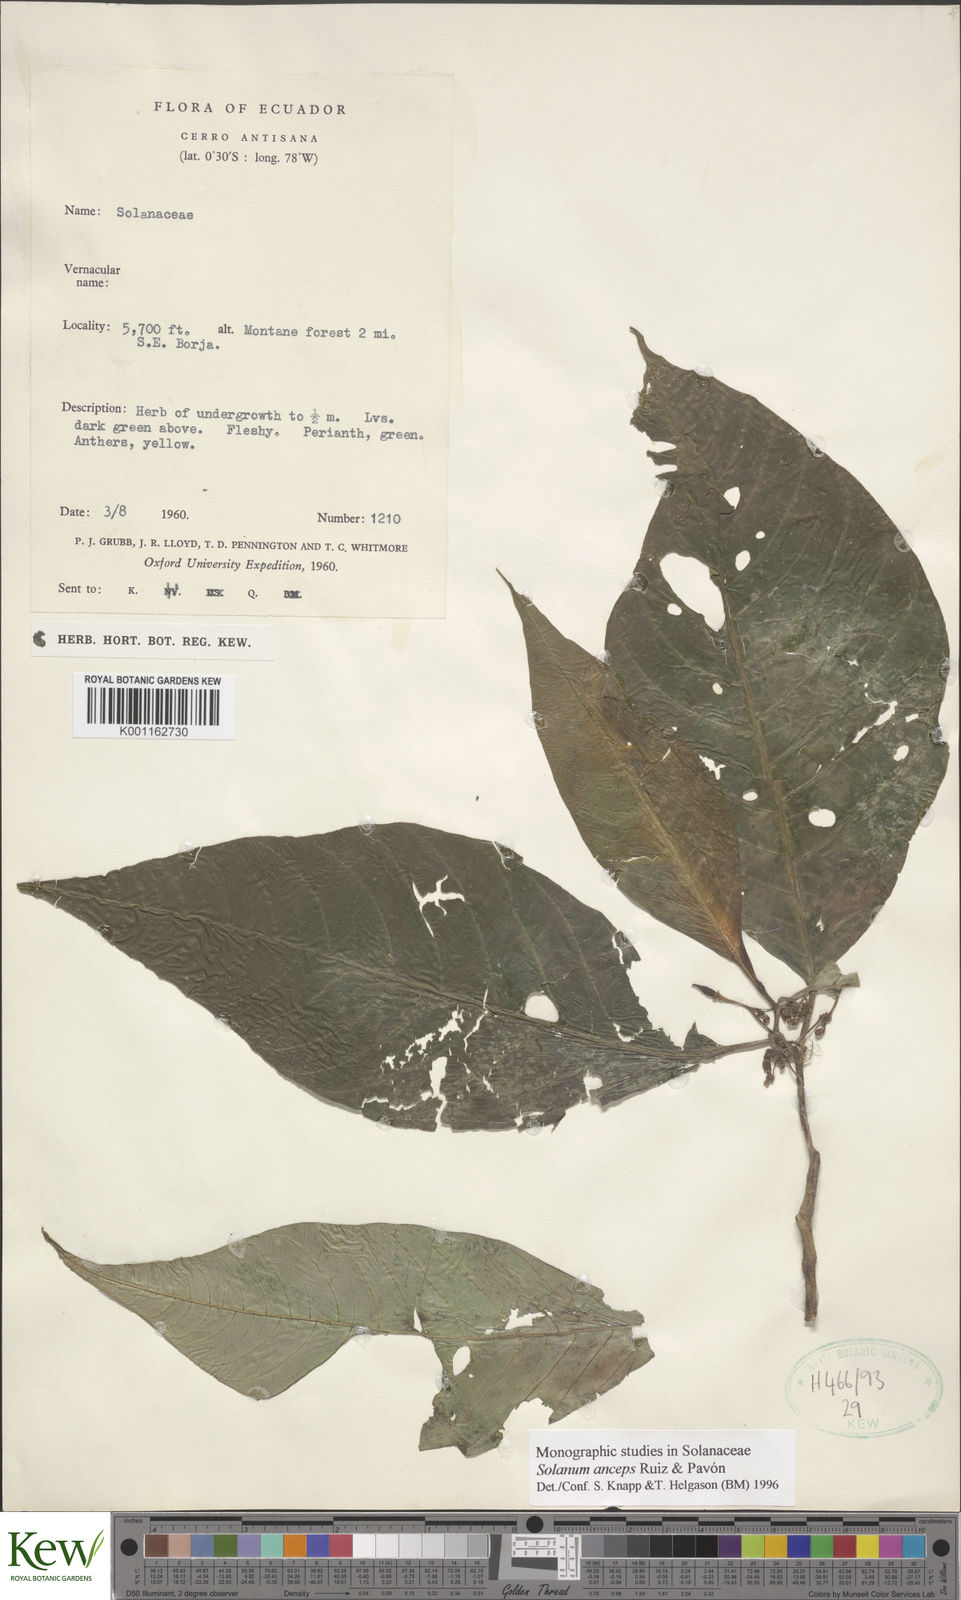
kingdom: Plantae
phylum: Tracheophyta
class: Magnoliopsida
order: Solanales
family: Solanaceae
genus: Solanum
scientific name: Solanum anceps
